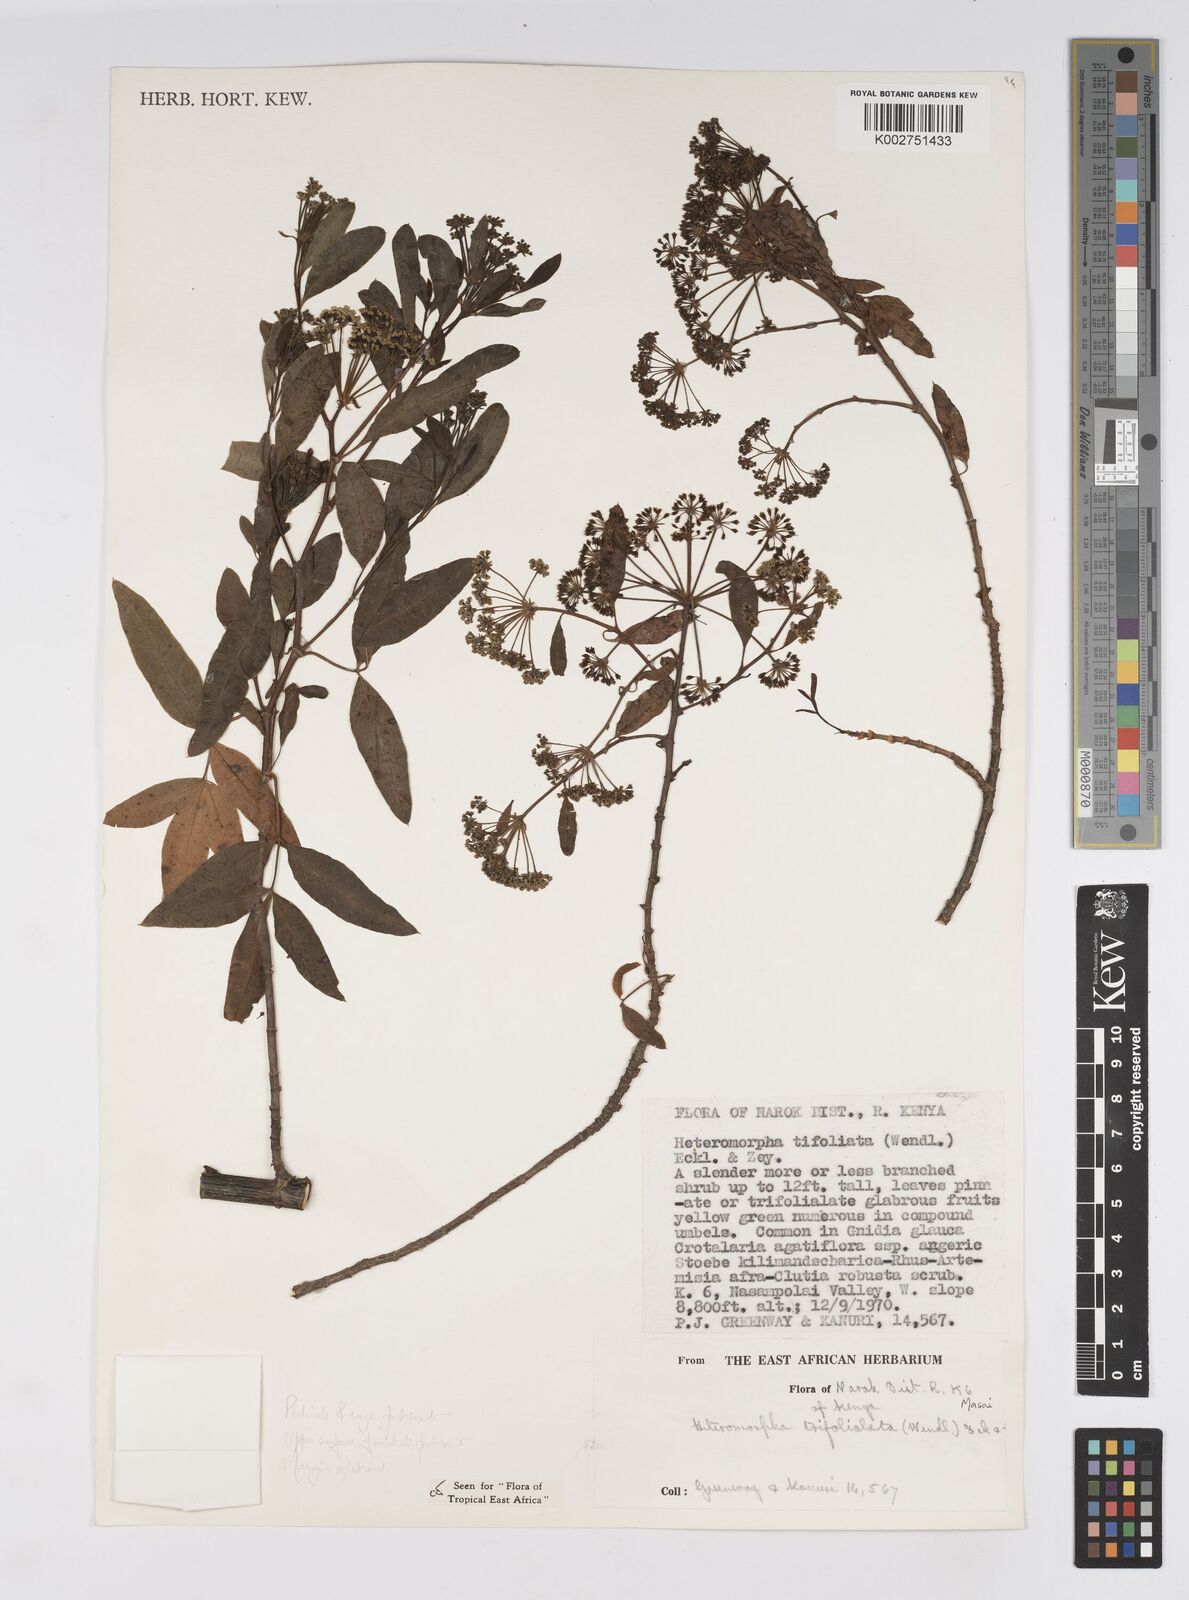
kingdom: Plantae
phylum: Tracheophyta
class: Magnoliopsida
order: Apiales
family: Apiaceae
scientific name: Apiaceae
